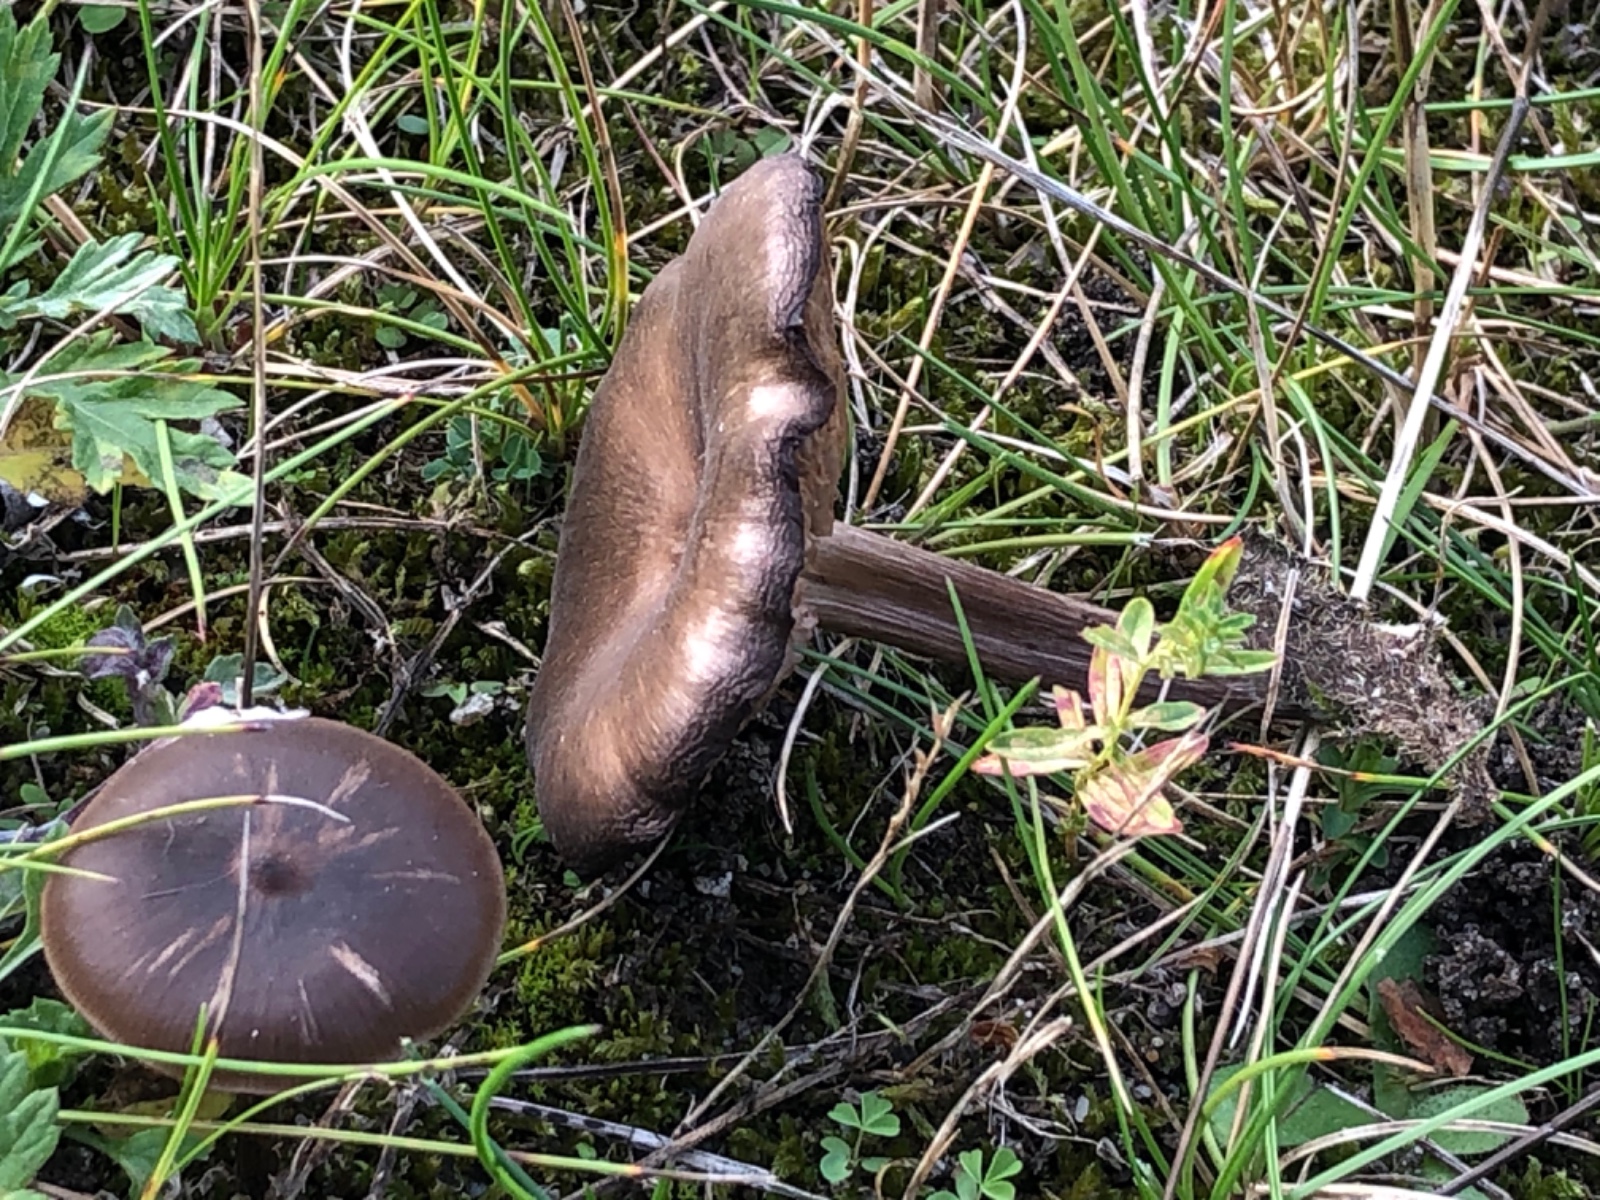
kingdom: Fungi
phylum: Basidiomycota
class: Agaricomycetes
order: Agaricales
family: Entolomataceae
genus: Entoloma
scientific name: Entoloma sericeum
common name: silkeglinsende rødblad
